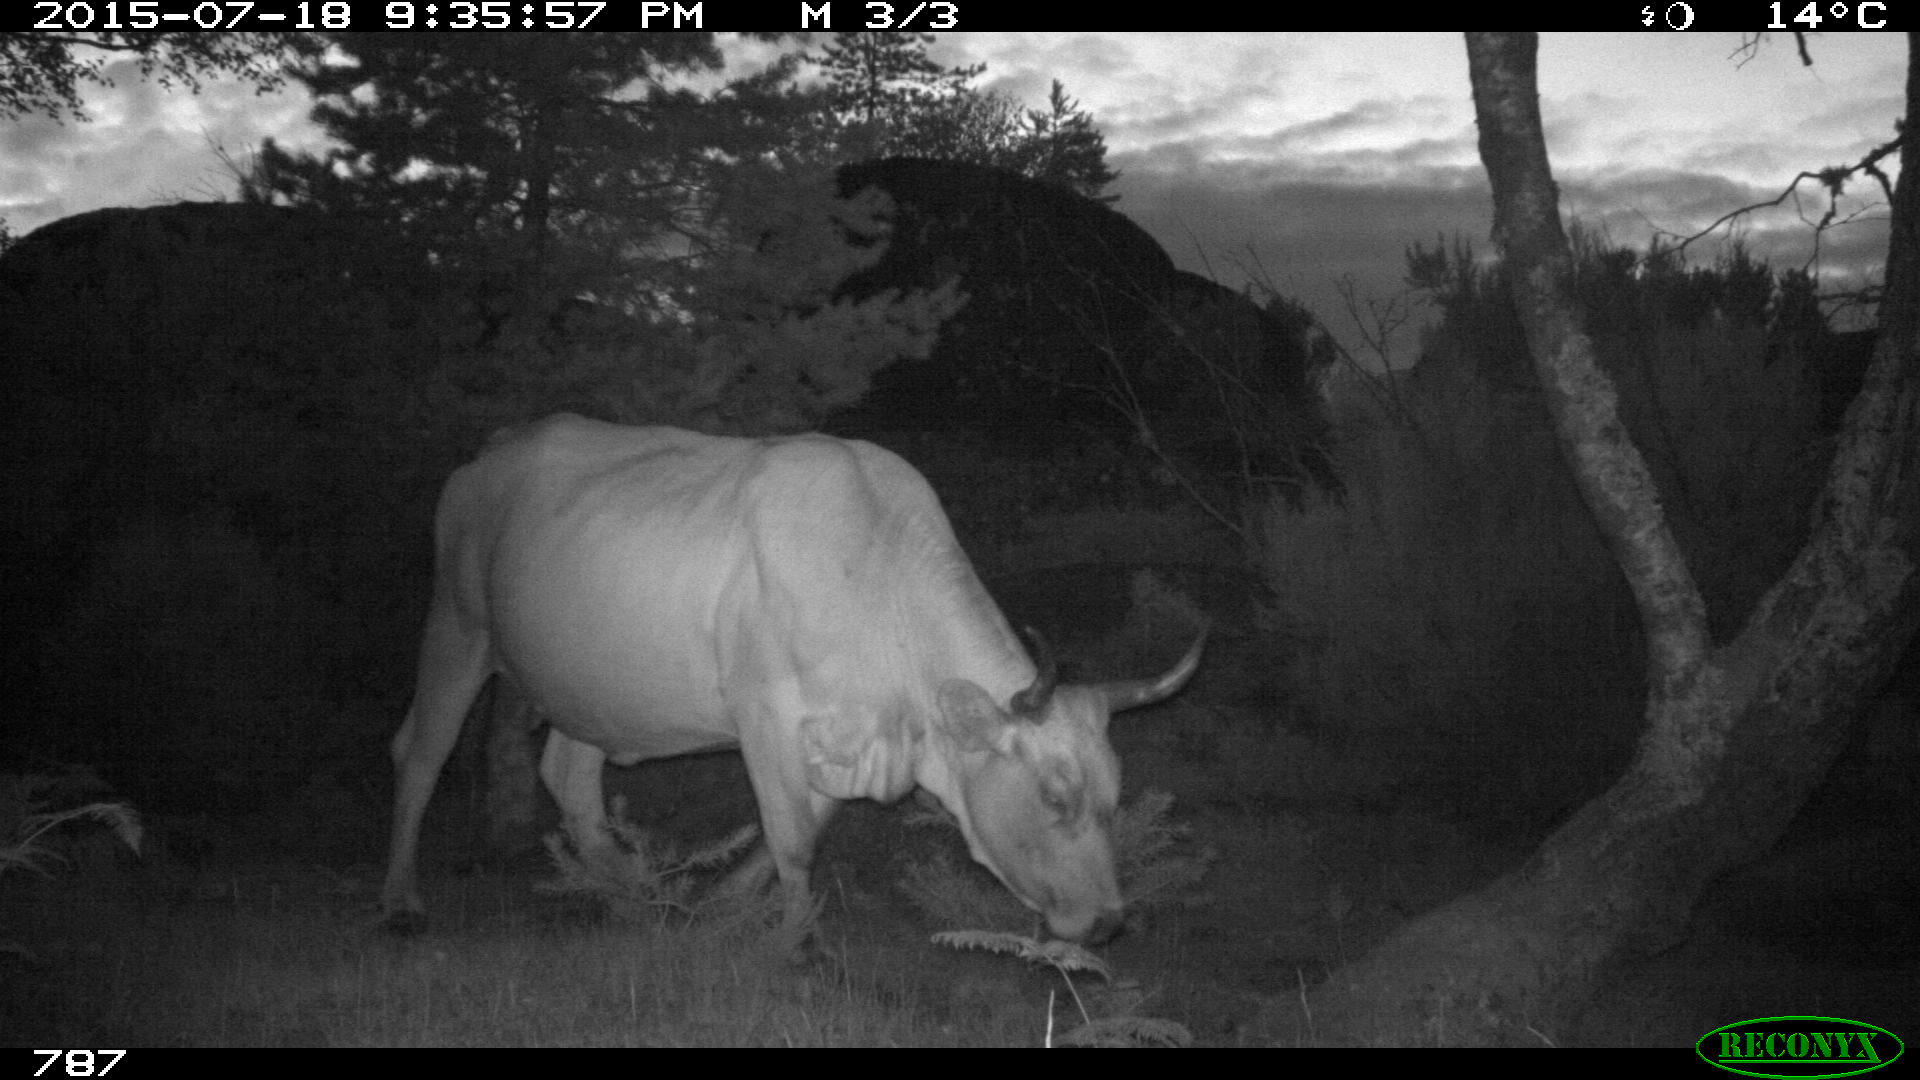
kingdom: Animalia
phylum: Chordata
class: Mammalia
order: Artiodactyla
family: Bovidae
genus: Bos
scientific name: Bos taurus
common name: Domesticated cattle
